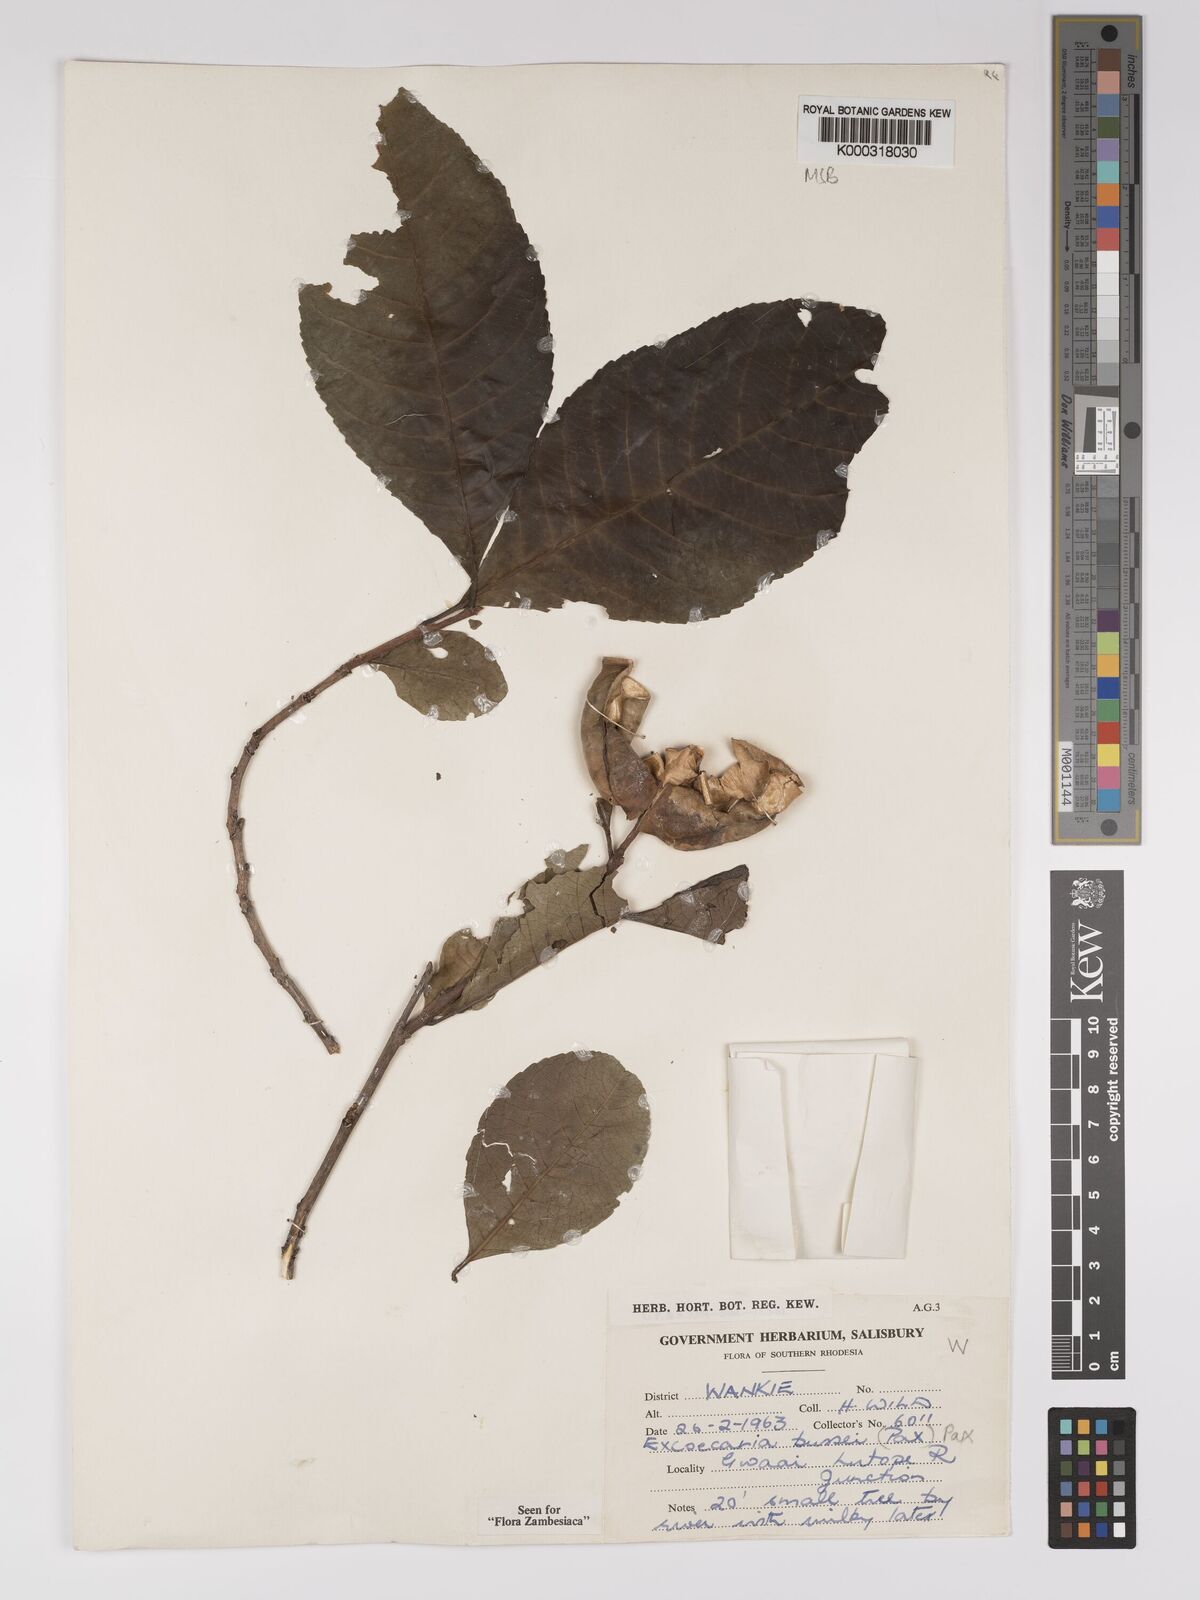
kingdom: Plantae
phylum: Tracheophyta
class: Magnoliopsida
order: Malpighiales
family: Euphorbiaceae
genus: Excoecaria
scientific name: Excoecaria bussei
